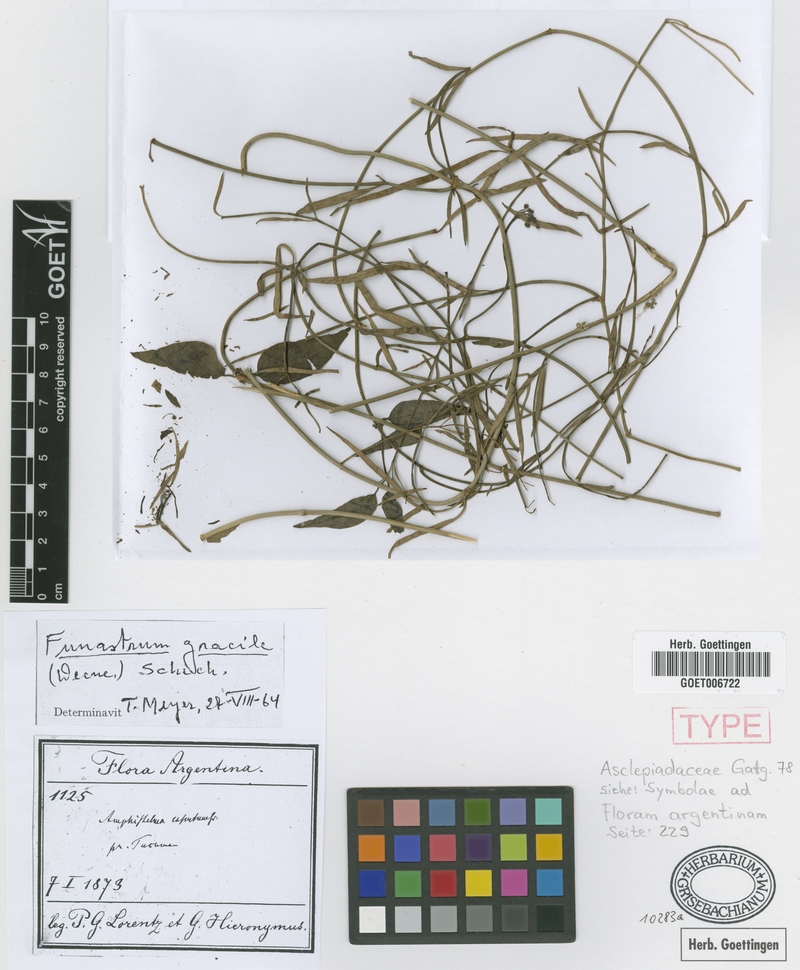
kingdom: Plantae
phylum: Tracheophyta
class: Magnoliopsida
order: Gentianales
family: Apocynaceae
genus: Funastrum
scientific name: Funastrum gracile
